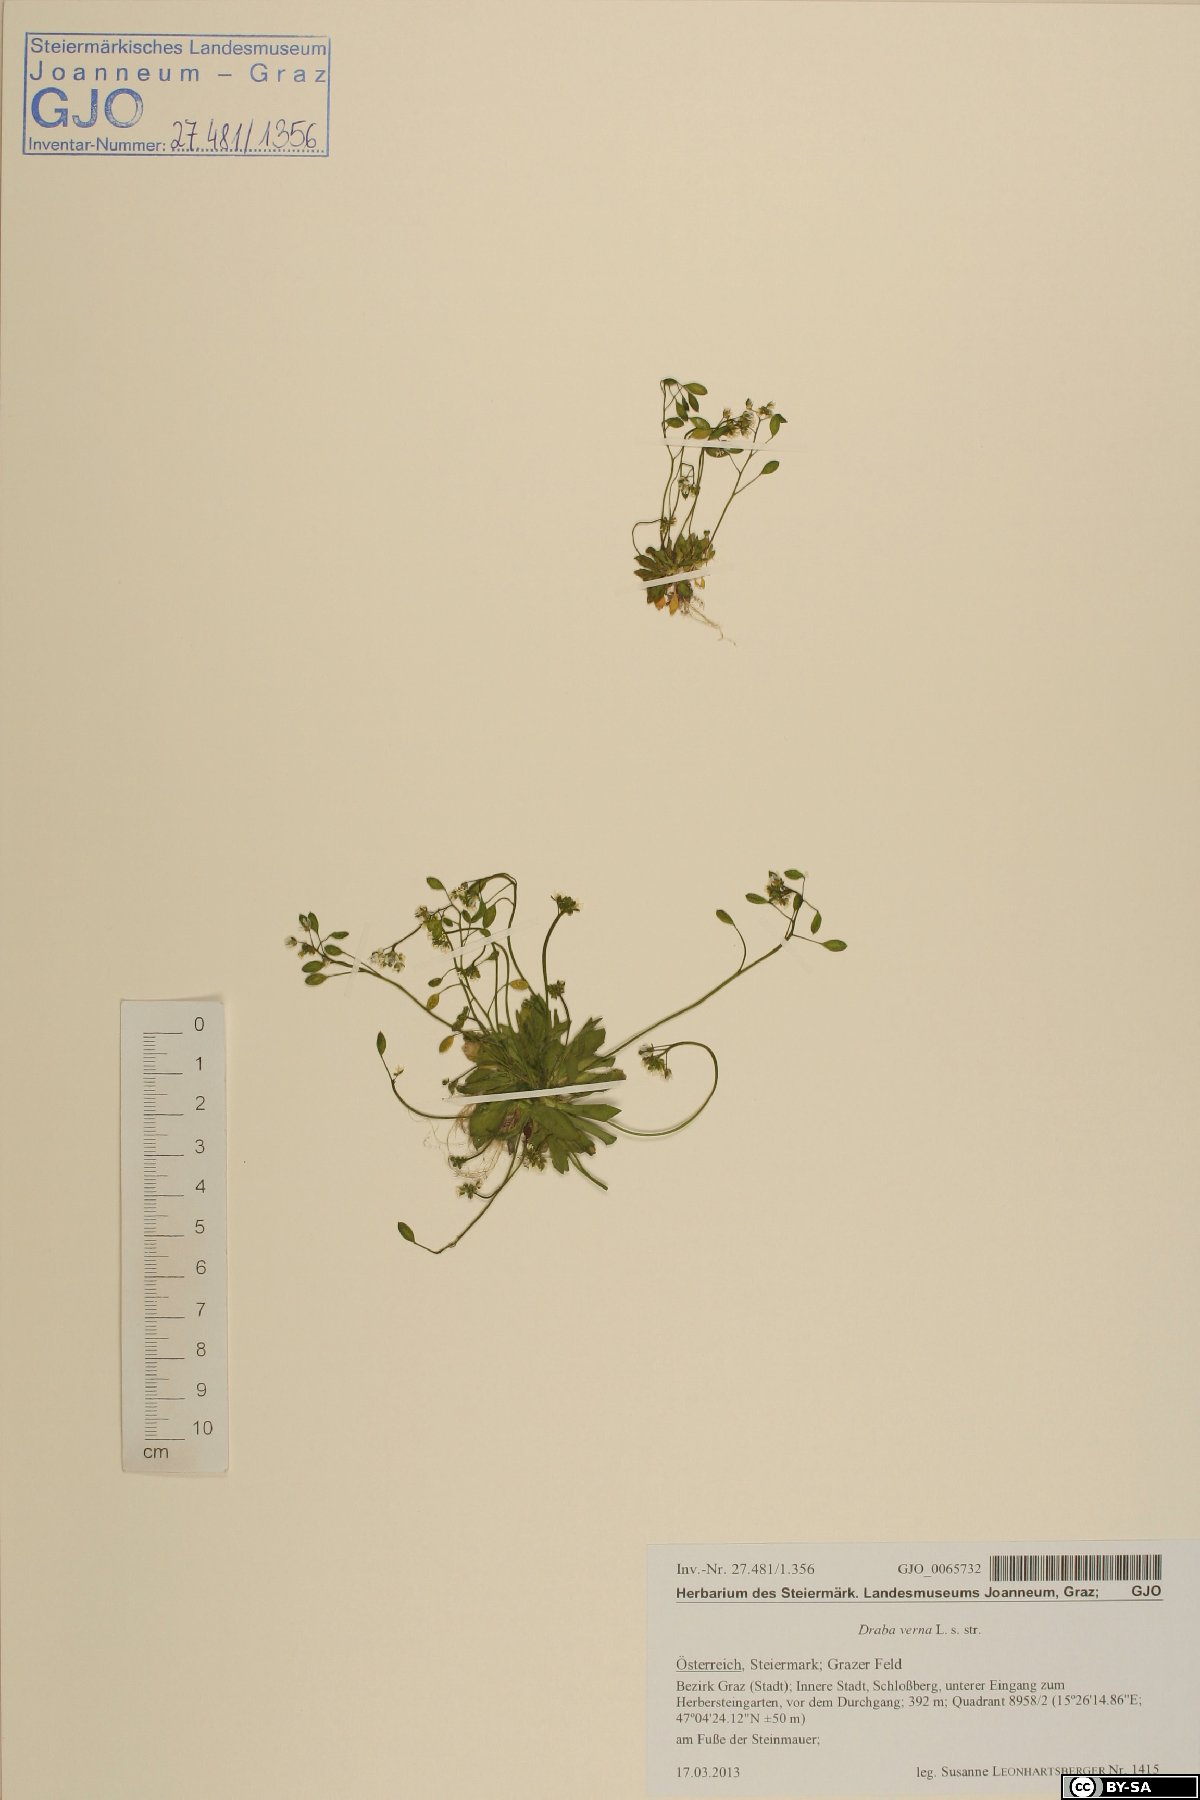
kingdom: Plantae
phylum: Tracheophyta
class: Magnoliopsida
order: Brassicales
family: Brassicaceae
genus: Draba
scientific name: Draba verna
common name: Spring draba
